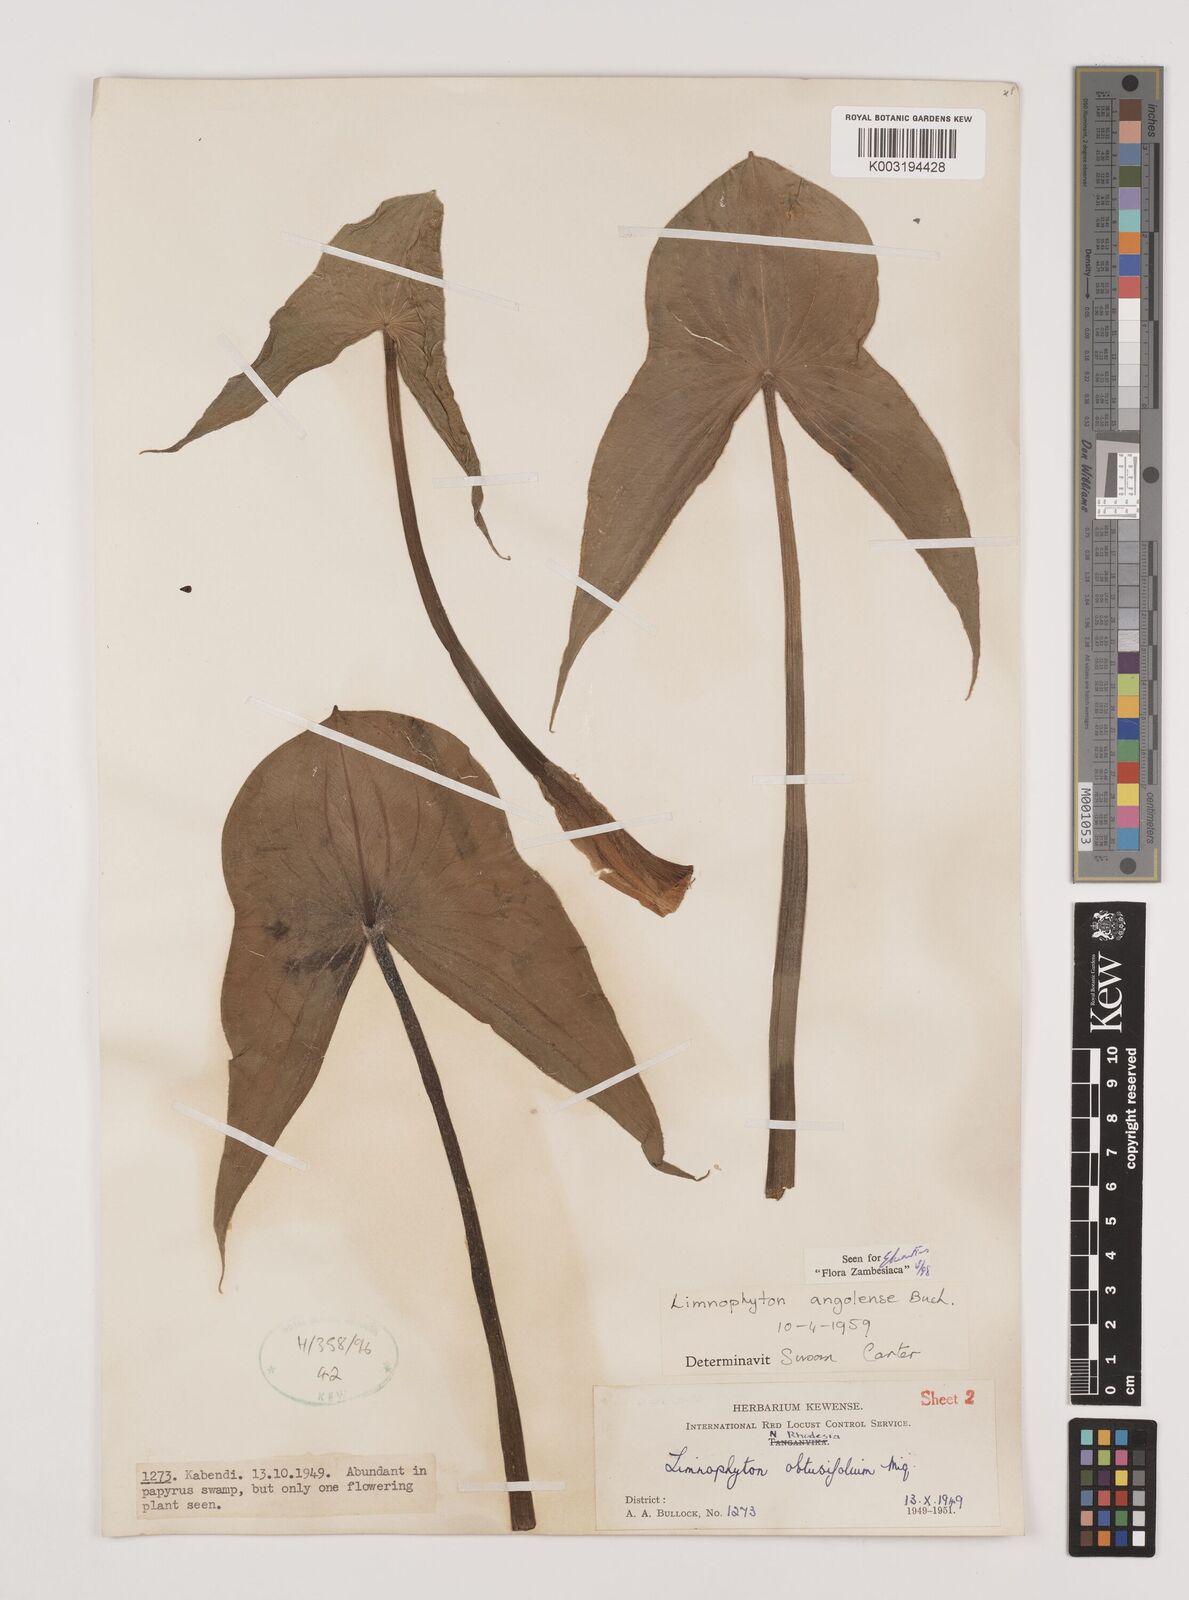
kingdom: Plantae
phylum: Tracheophyta
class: Liliopsida
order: Alismatales
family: Alismataceae
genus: Limnophyton
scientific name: Limnophyton
